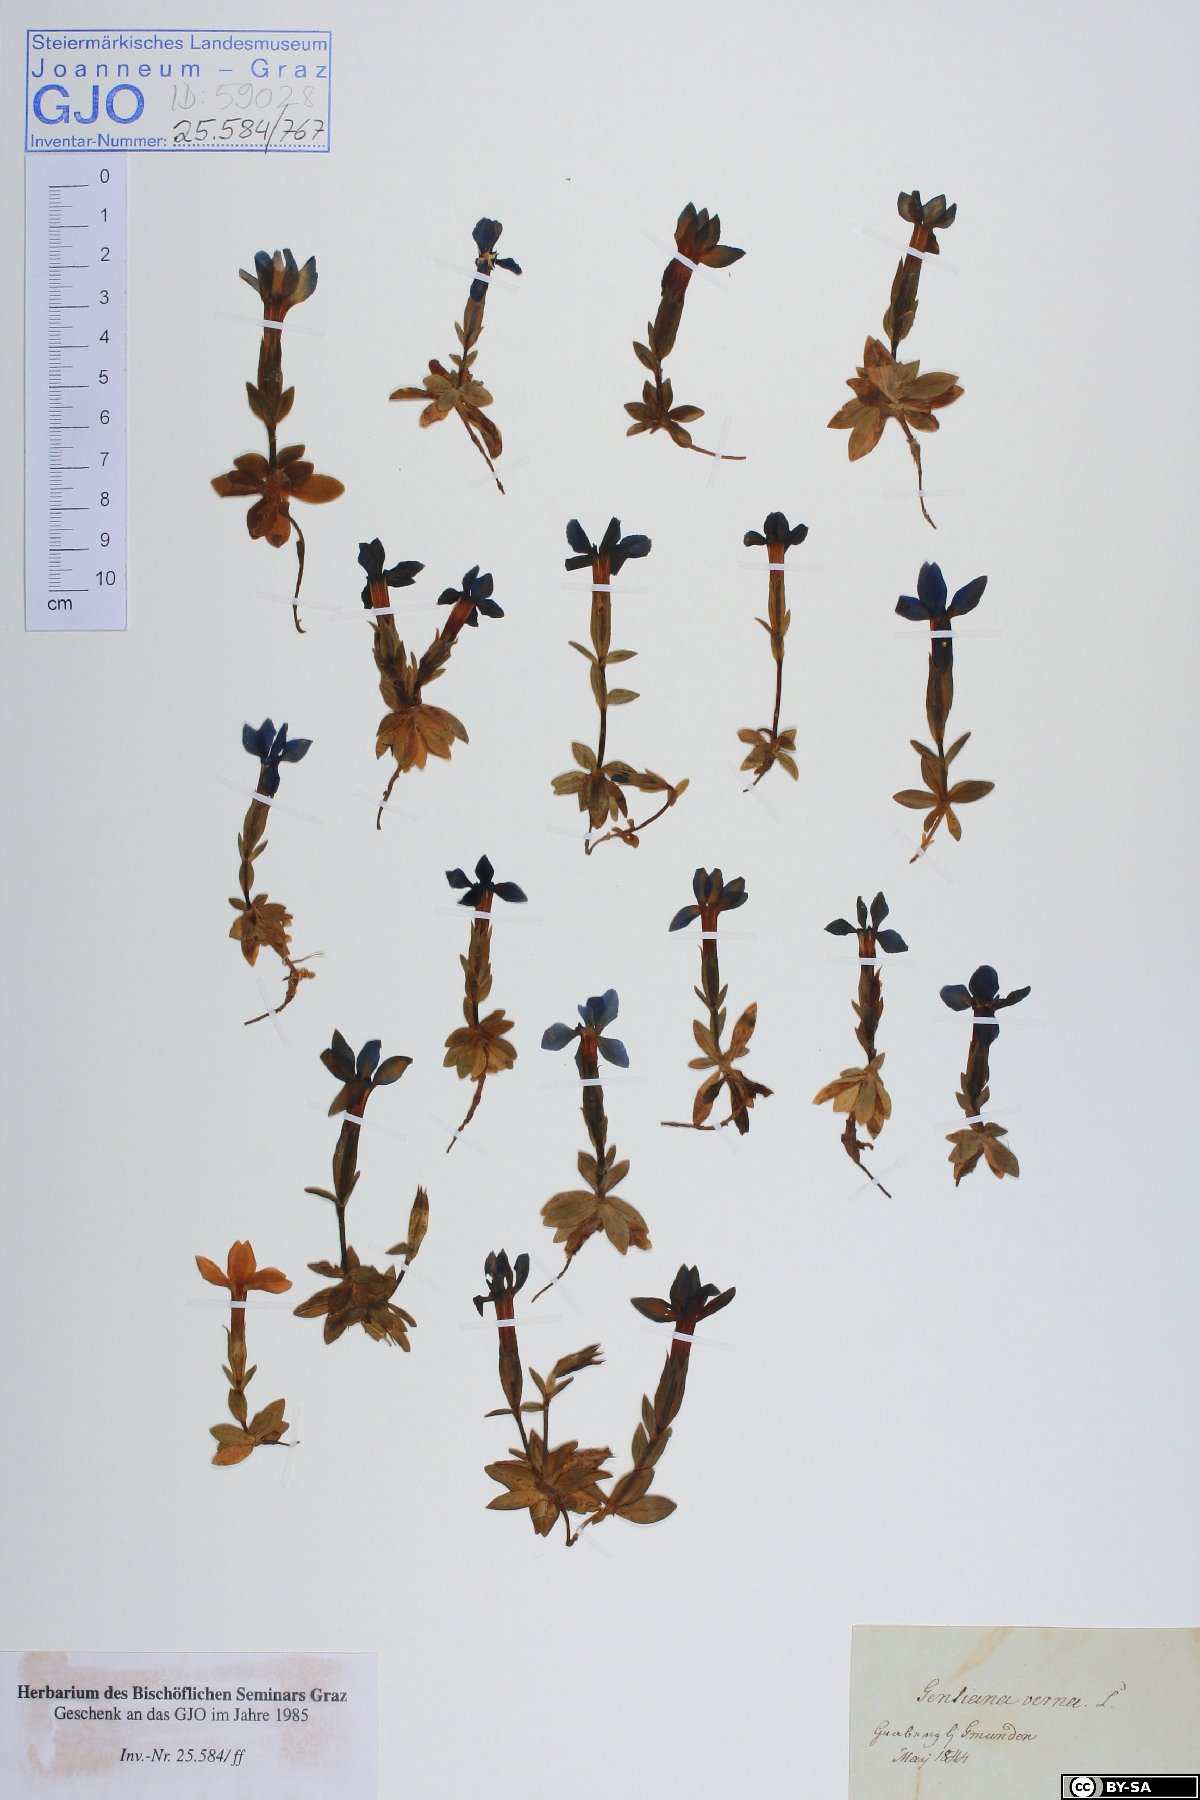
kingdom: Plantae
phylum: Tracheophyta
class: Magnoliopsida
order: Gentianales
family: Gentianaceae
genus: Gentiana
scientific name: Gentiana verna
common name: Spring gentian
